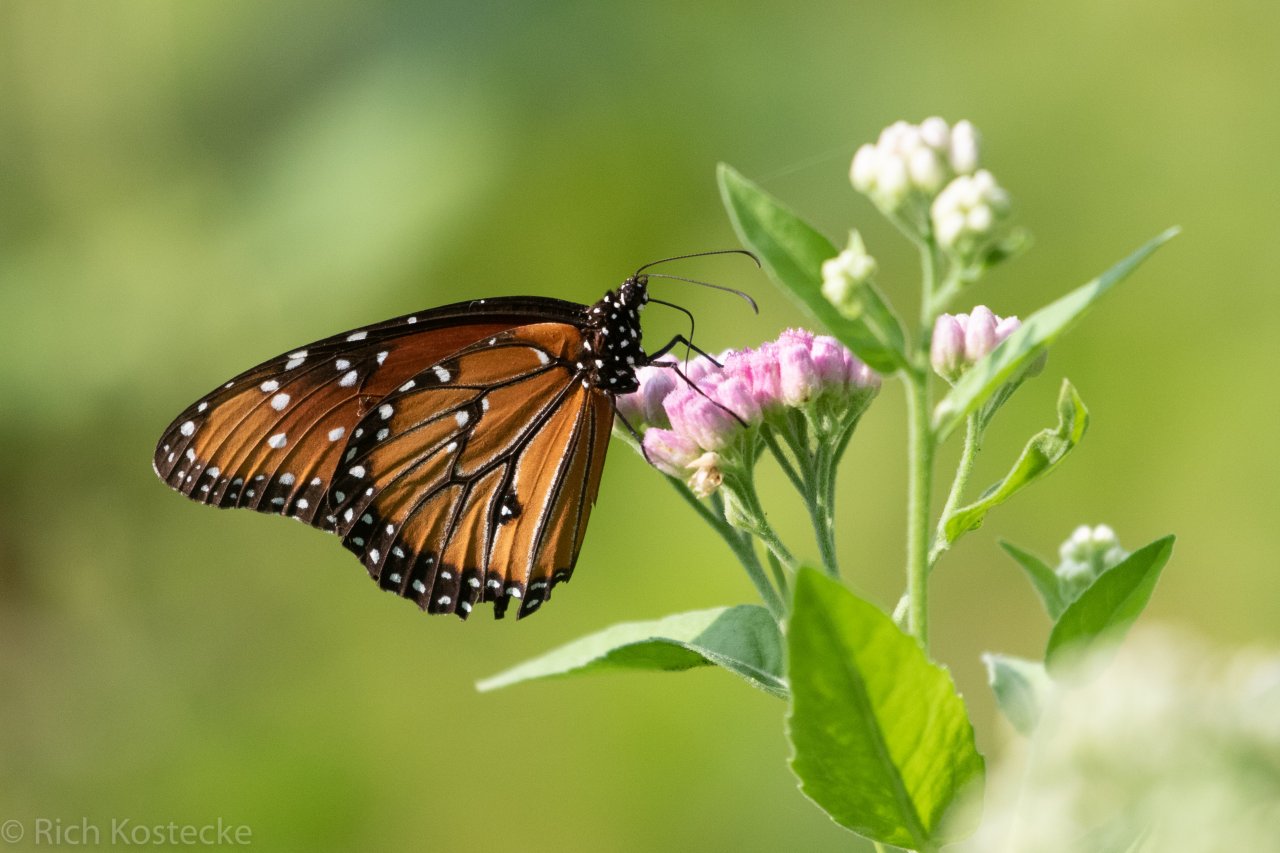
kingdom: Animalia
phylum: Arthropoda
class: Insecta
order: Lepidoptera
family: Nymphalidae
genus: Danaus
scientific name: Danaus gilippus
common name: Queen
